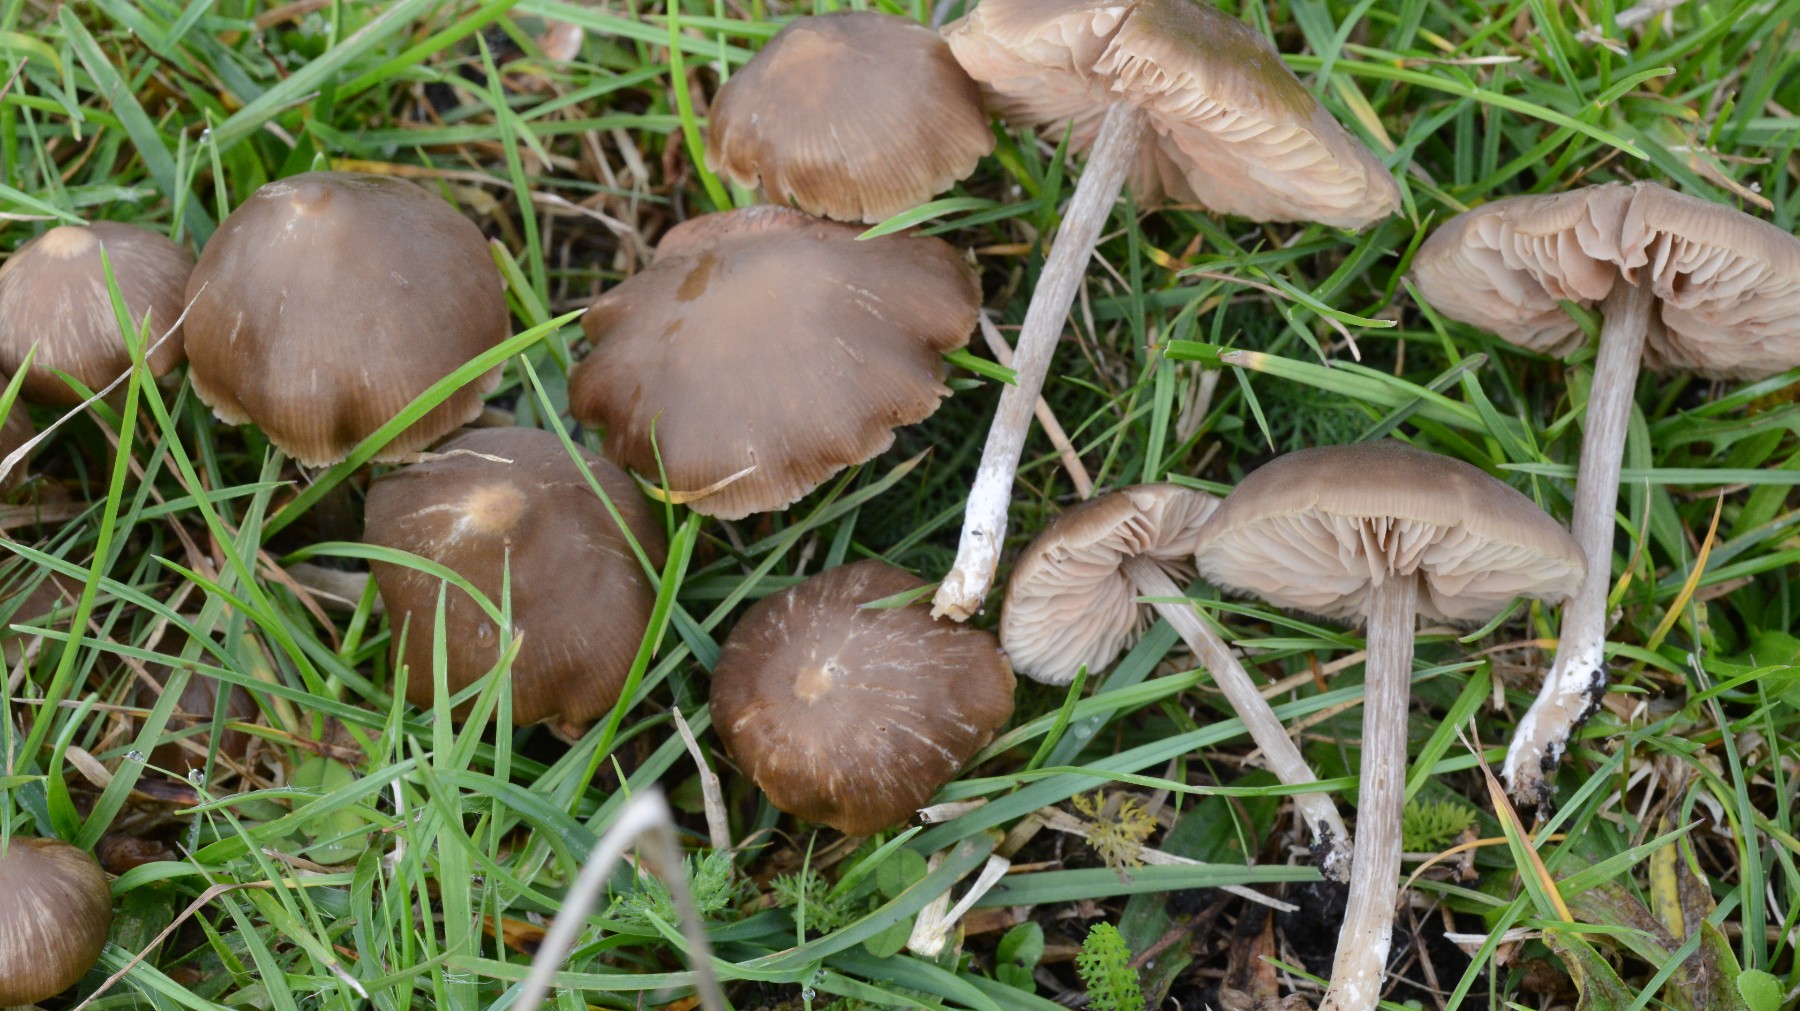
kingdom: Fungi
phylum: Basidiomycota
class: Agaricomycetes
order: Agaricales
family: Entolomataceae
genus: Entoloma
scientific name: Entoloma
